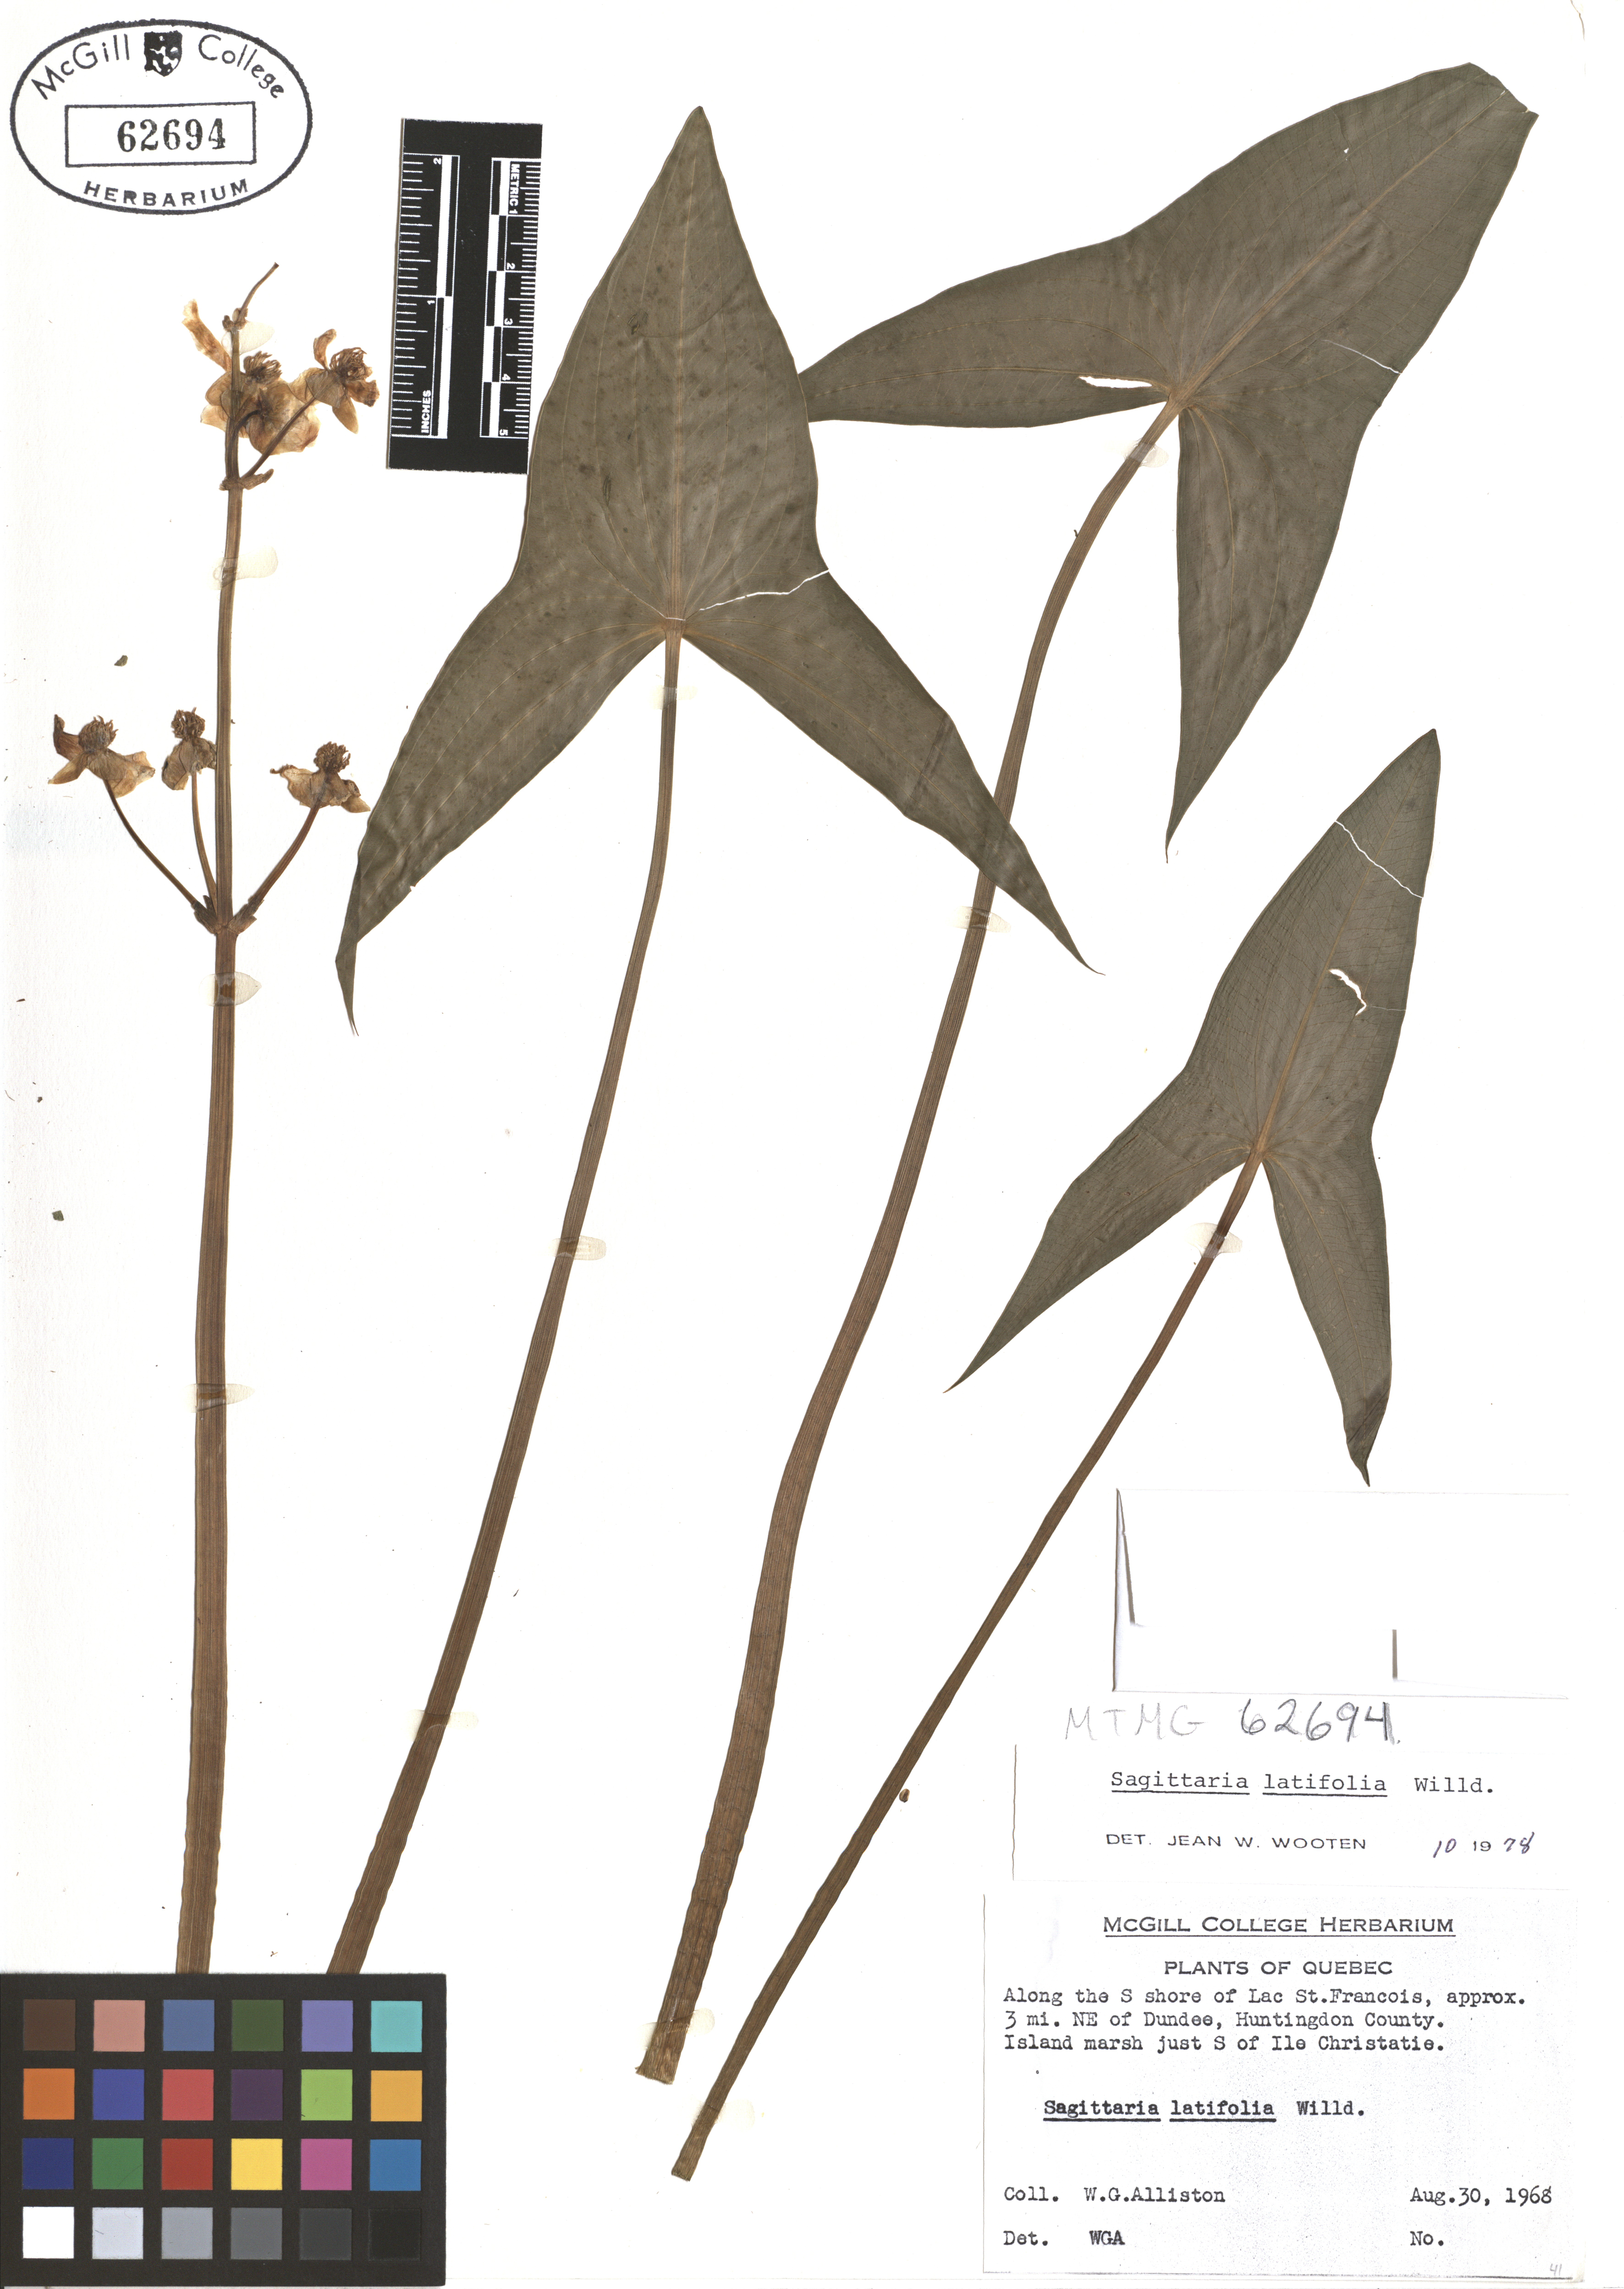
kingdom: Plantae
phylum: Tracheophyta
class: Liliopsida
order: Alismatales
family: Alismataceae
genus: Sagittaria
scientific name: Sagittaria latifolia
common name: Duck-potato
